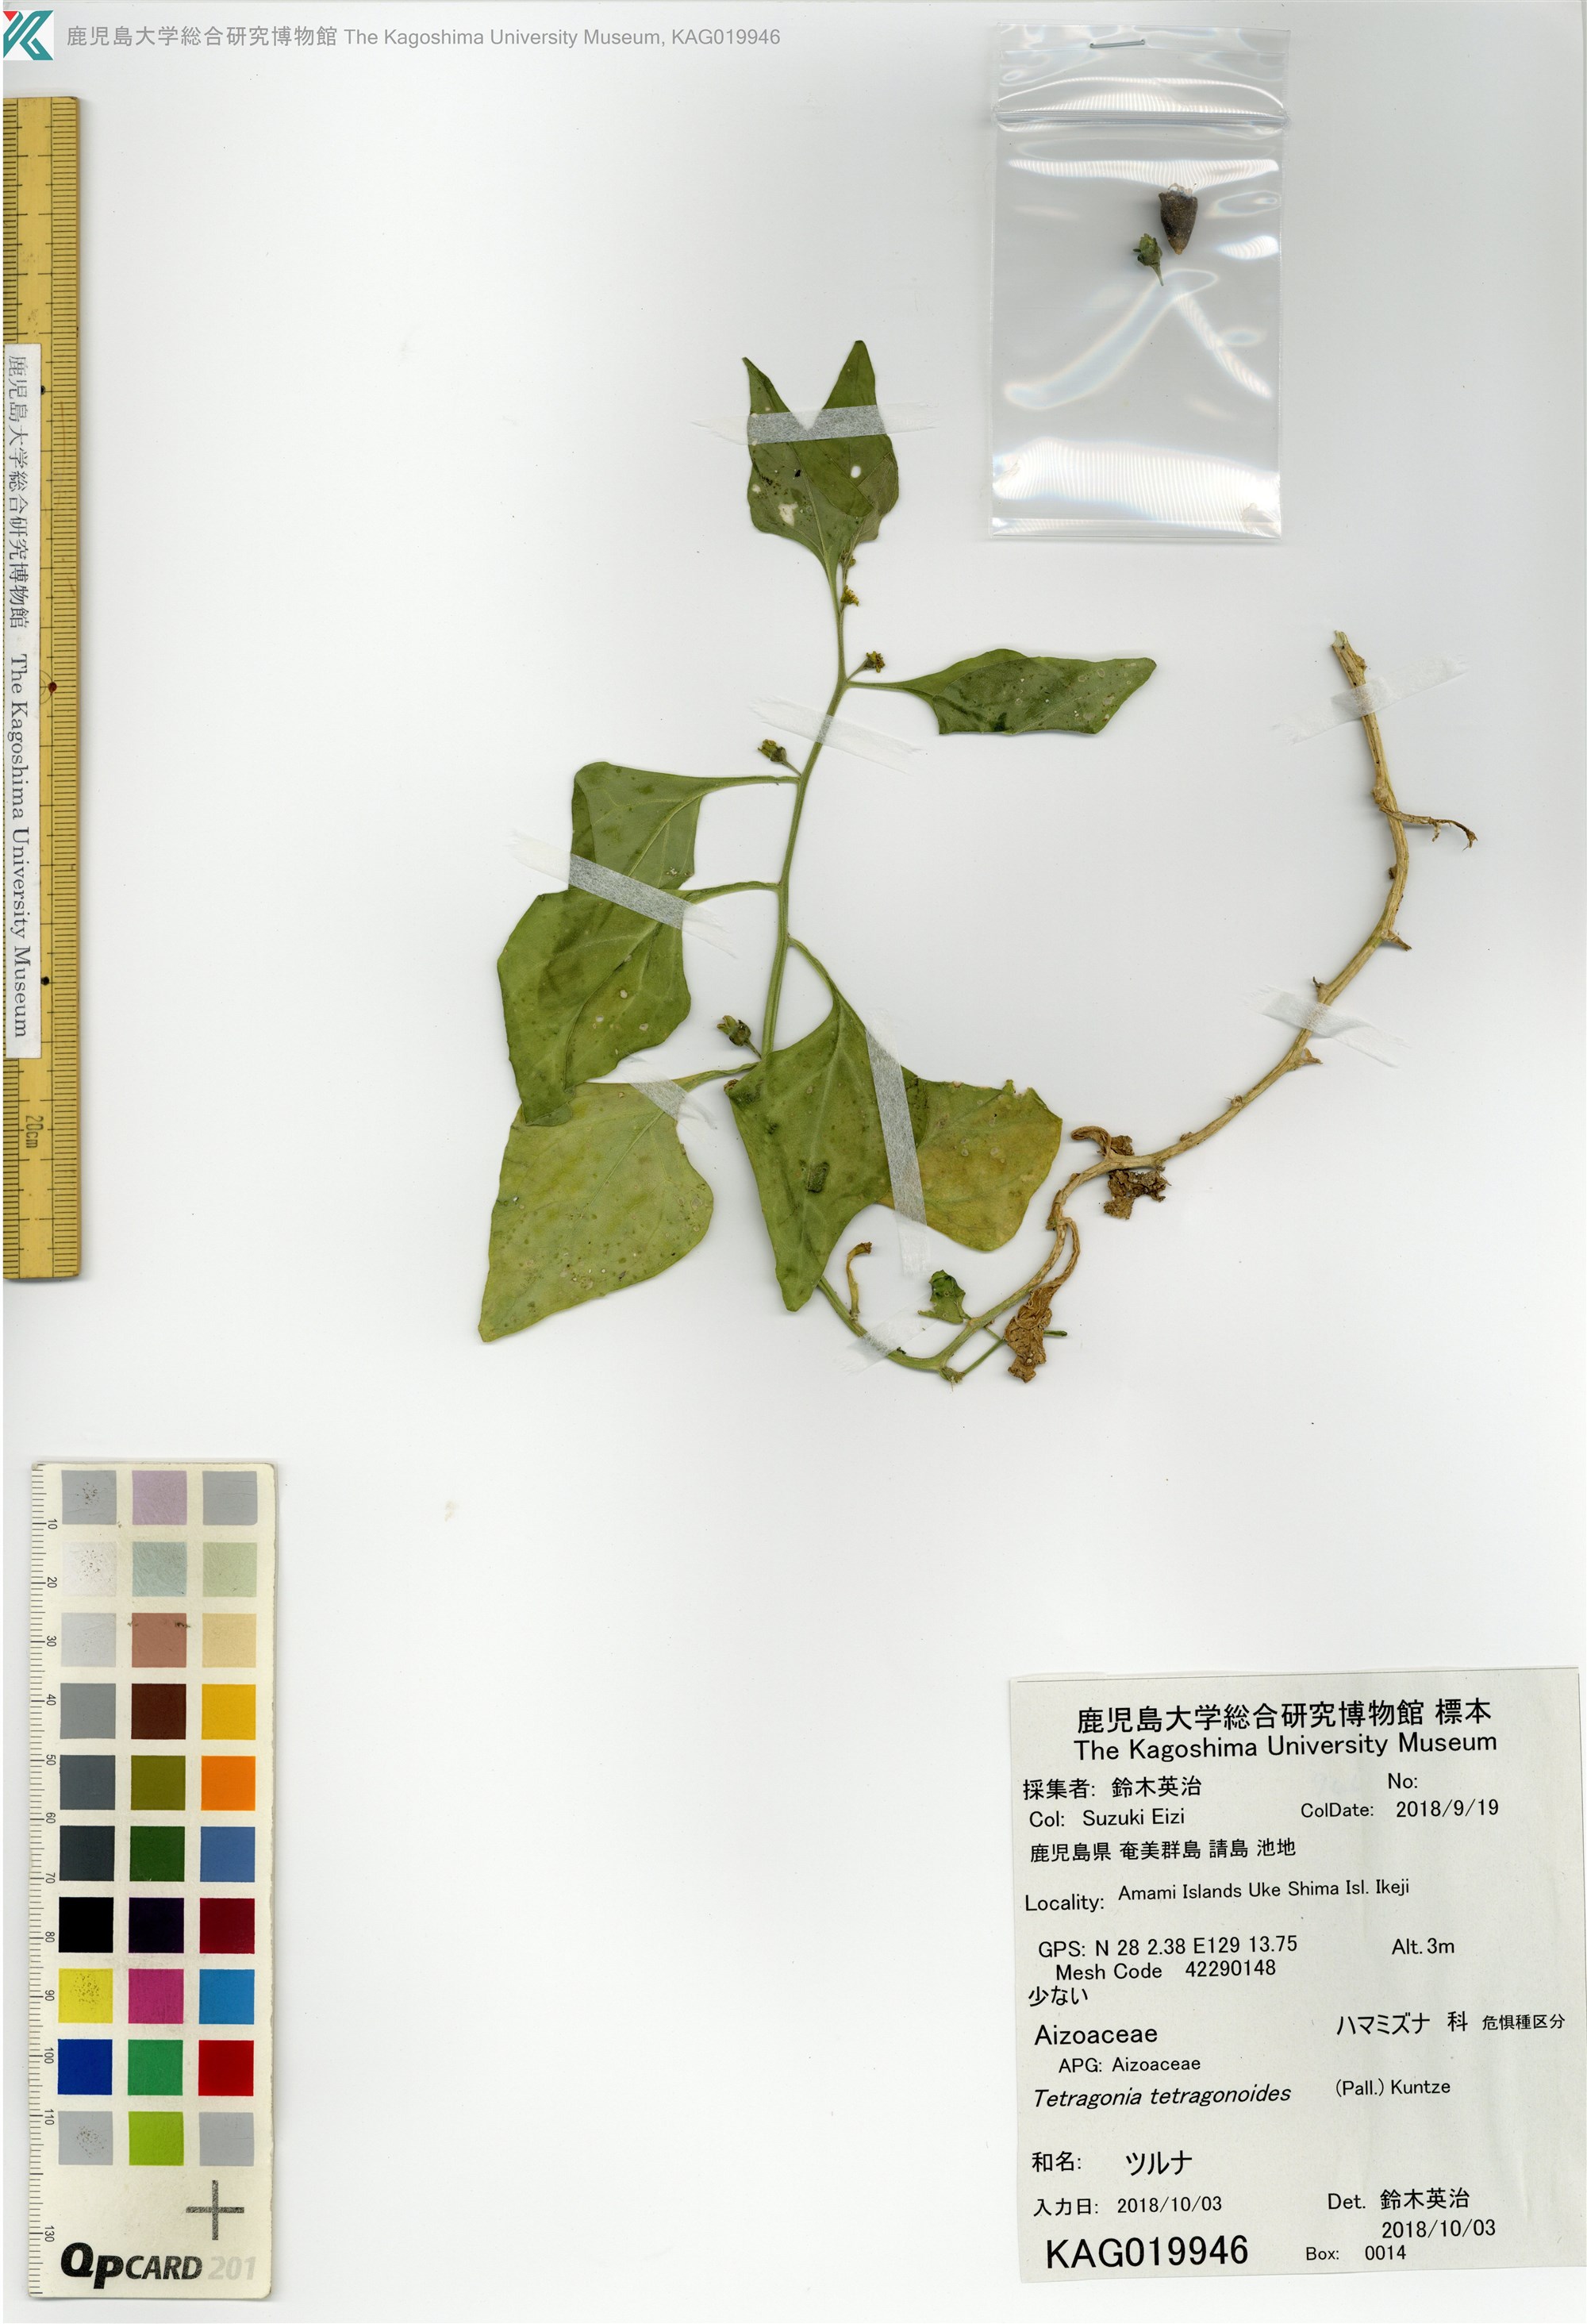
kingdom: Plantae
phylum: Tracheophyta
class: Magnoliopsida
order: Caryophyllales
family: Aizoaceae
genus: Tetragonia
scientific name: Tetragonia tetragonoides
